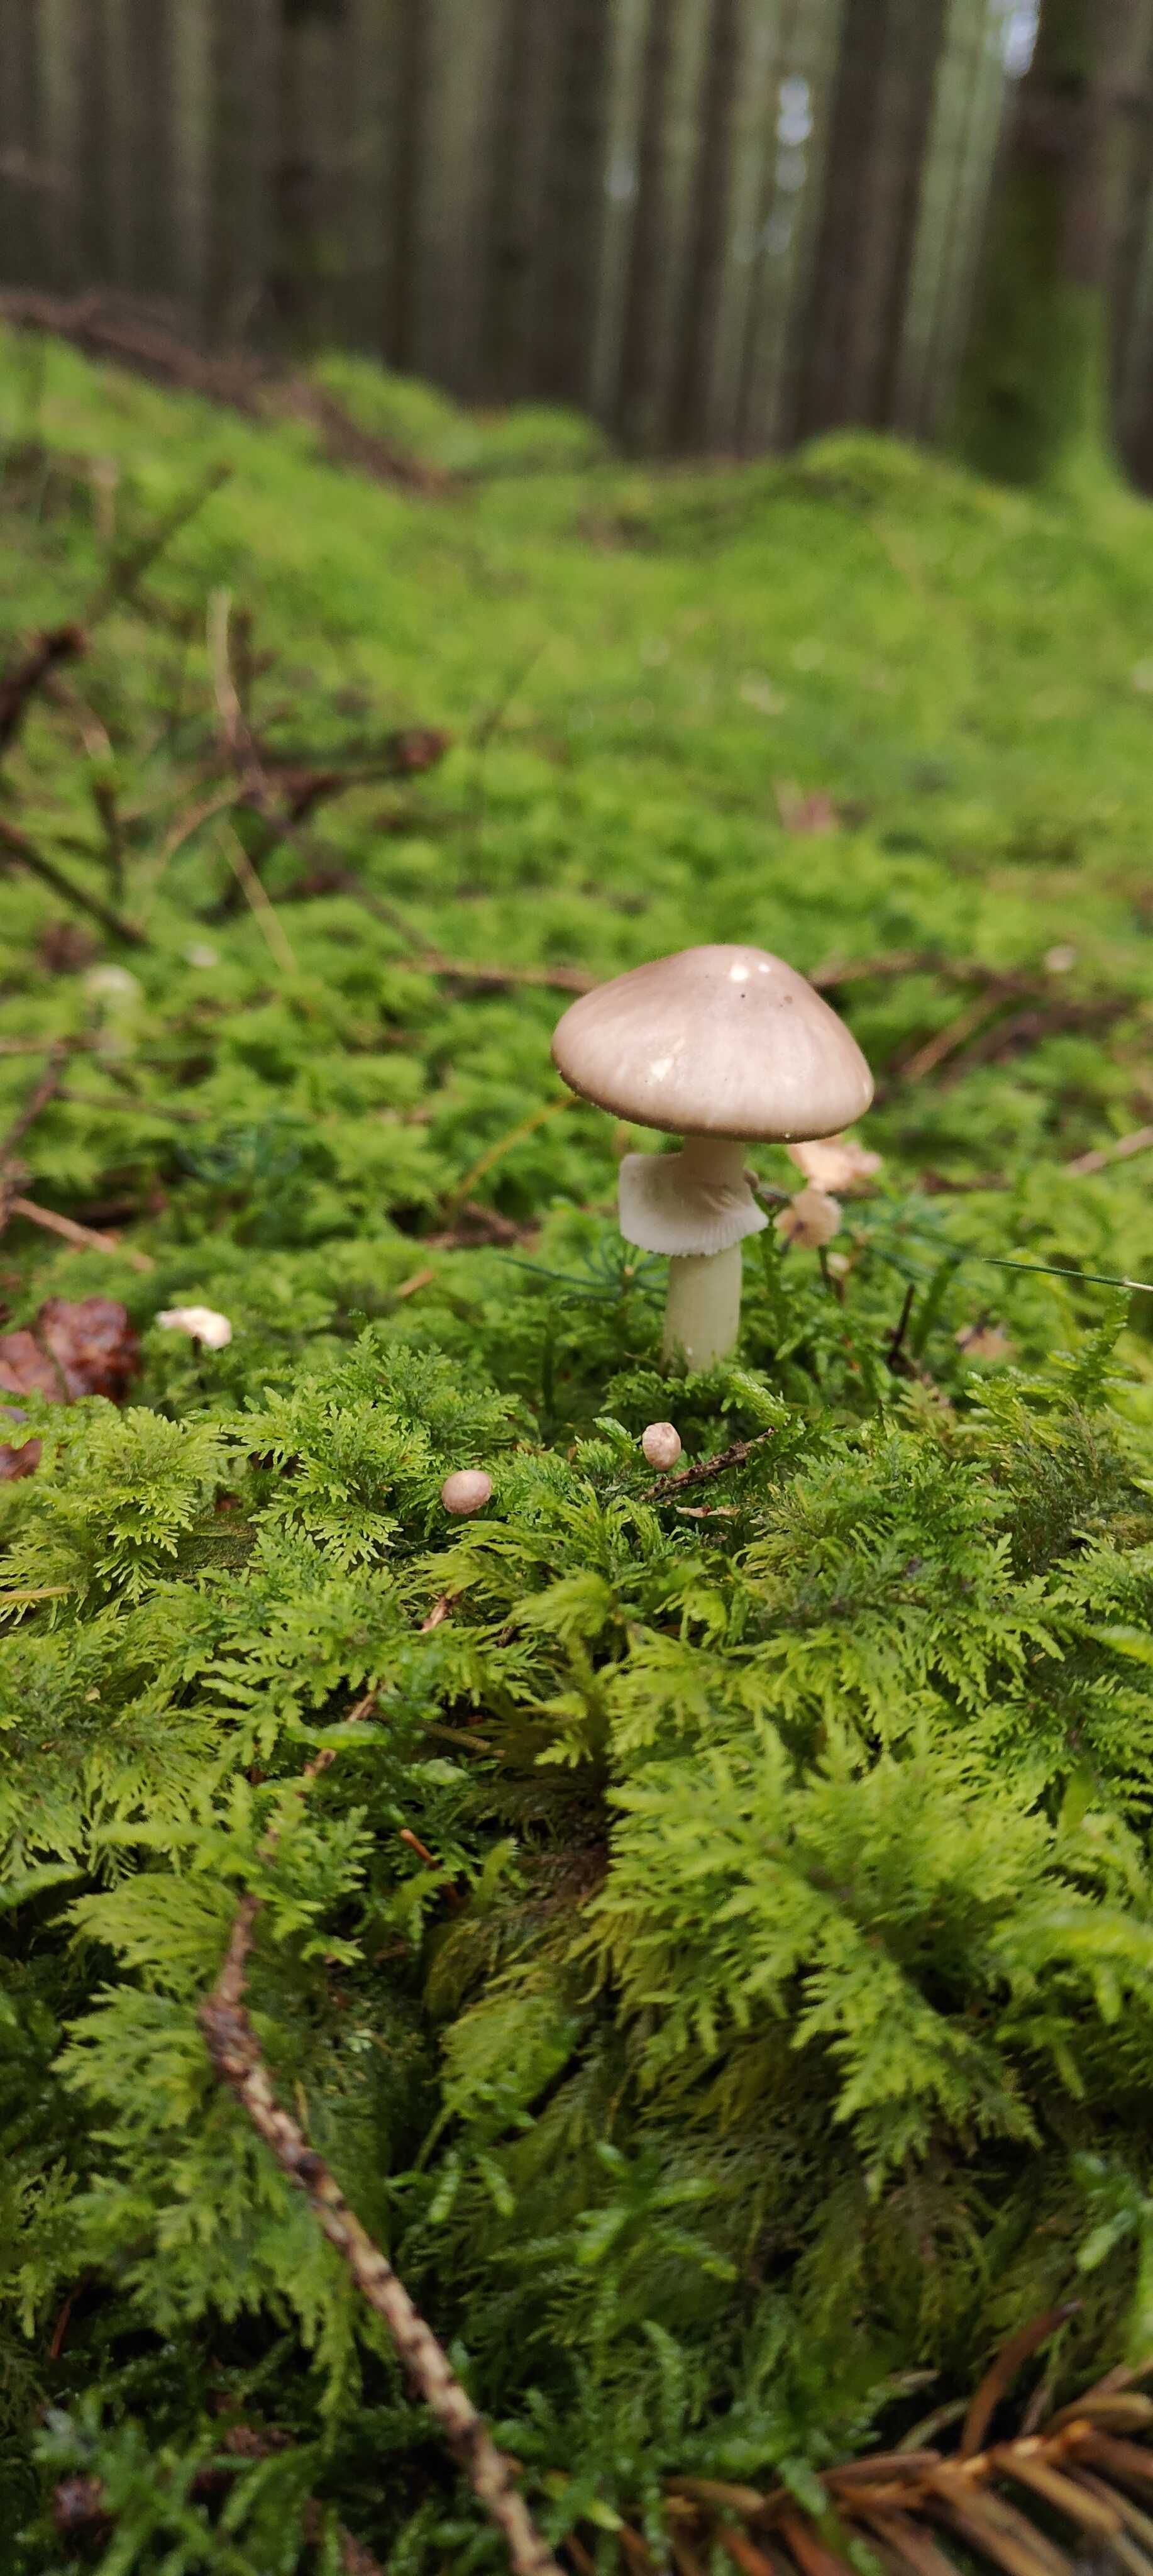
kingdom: Fungi
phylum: Basidiomycota
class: Agaricomycetes
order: Agaricales
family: Amanitaceae
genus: Amanita
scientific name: Amanita porphyria
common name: porfyr-fluesvamp
